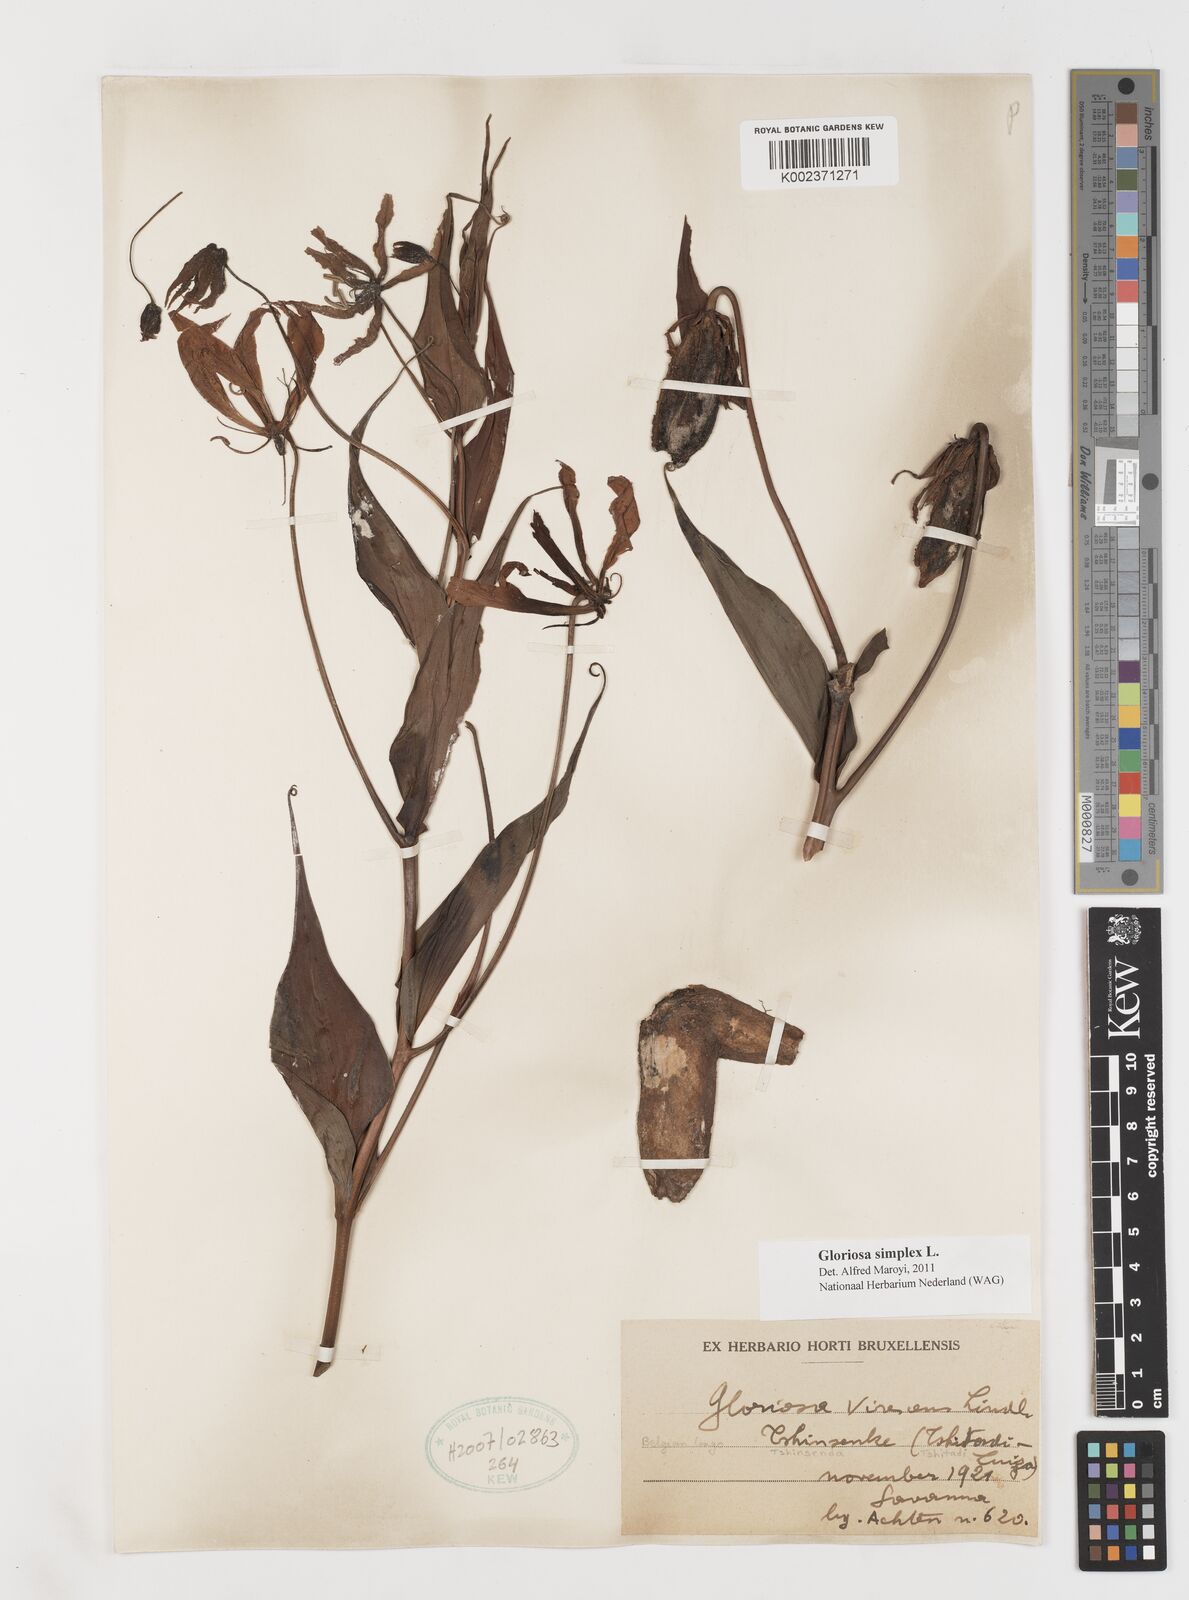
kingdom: Plantae
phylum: Tracheophyta
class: Liliopsida
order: Liliales
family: Colchicaceae
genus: Gloriosa
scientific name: Gloriosa simplex
